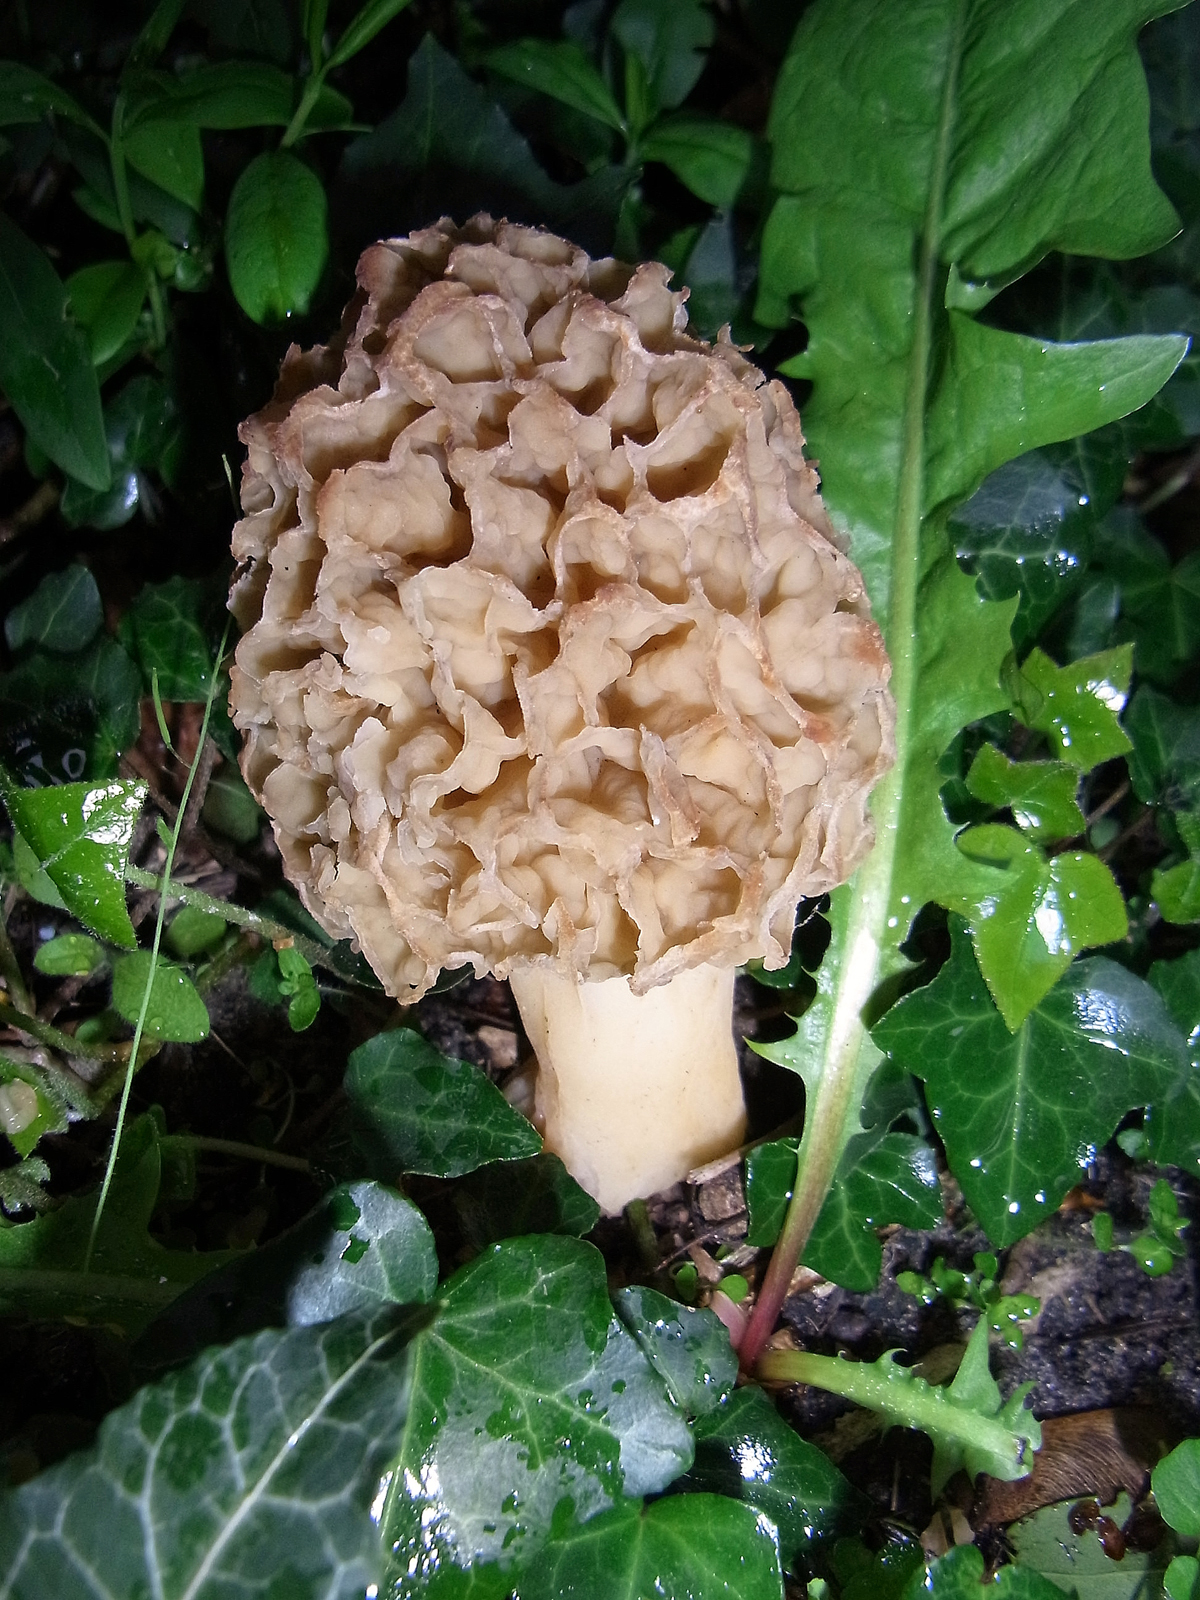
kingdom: Fungi
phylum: Ascomycota
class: Pezizomycetes
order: Pezizales
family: Morchellaceae
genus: Morchella
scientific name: Morchella esculenta
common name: Morel
